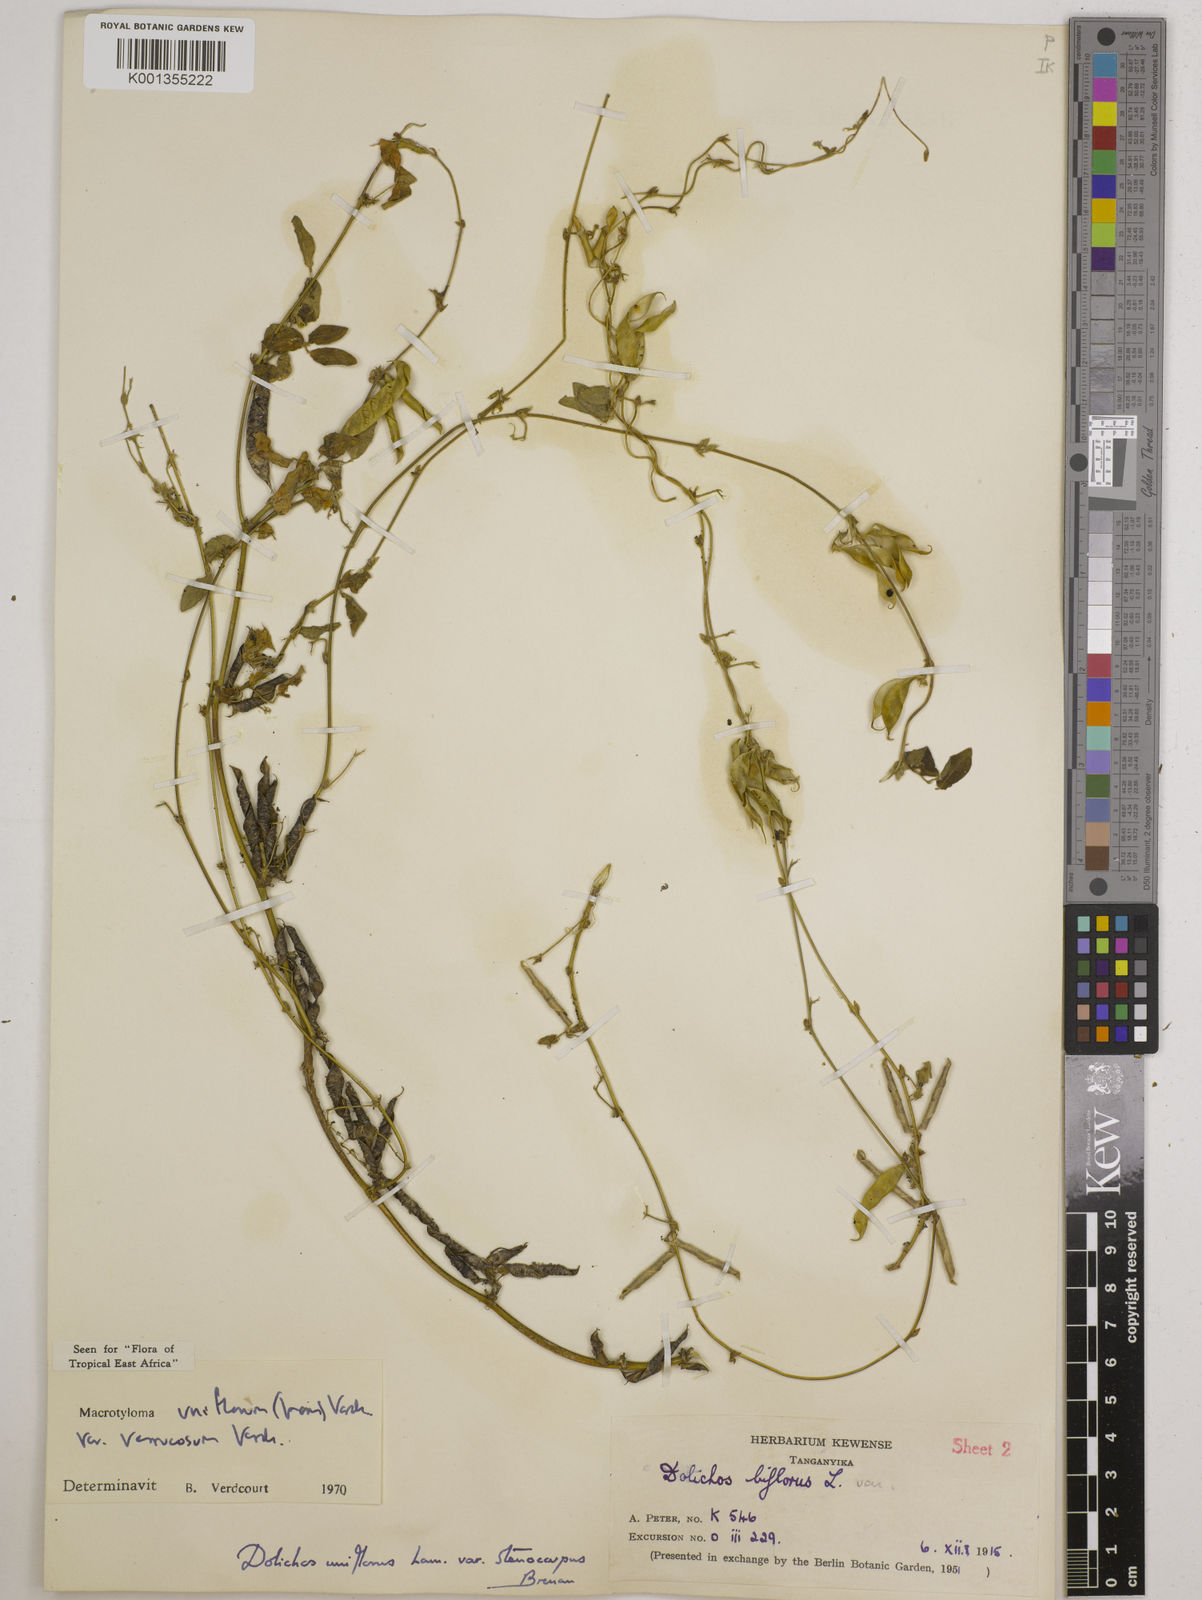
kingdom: Plantae
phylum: Tracheophyta
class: Magnoliopsida
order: Fabales
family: Fabaceae
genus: Macrotyloma
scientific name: Macrotyloma
